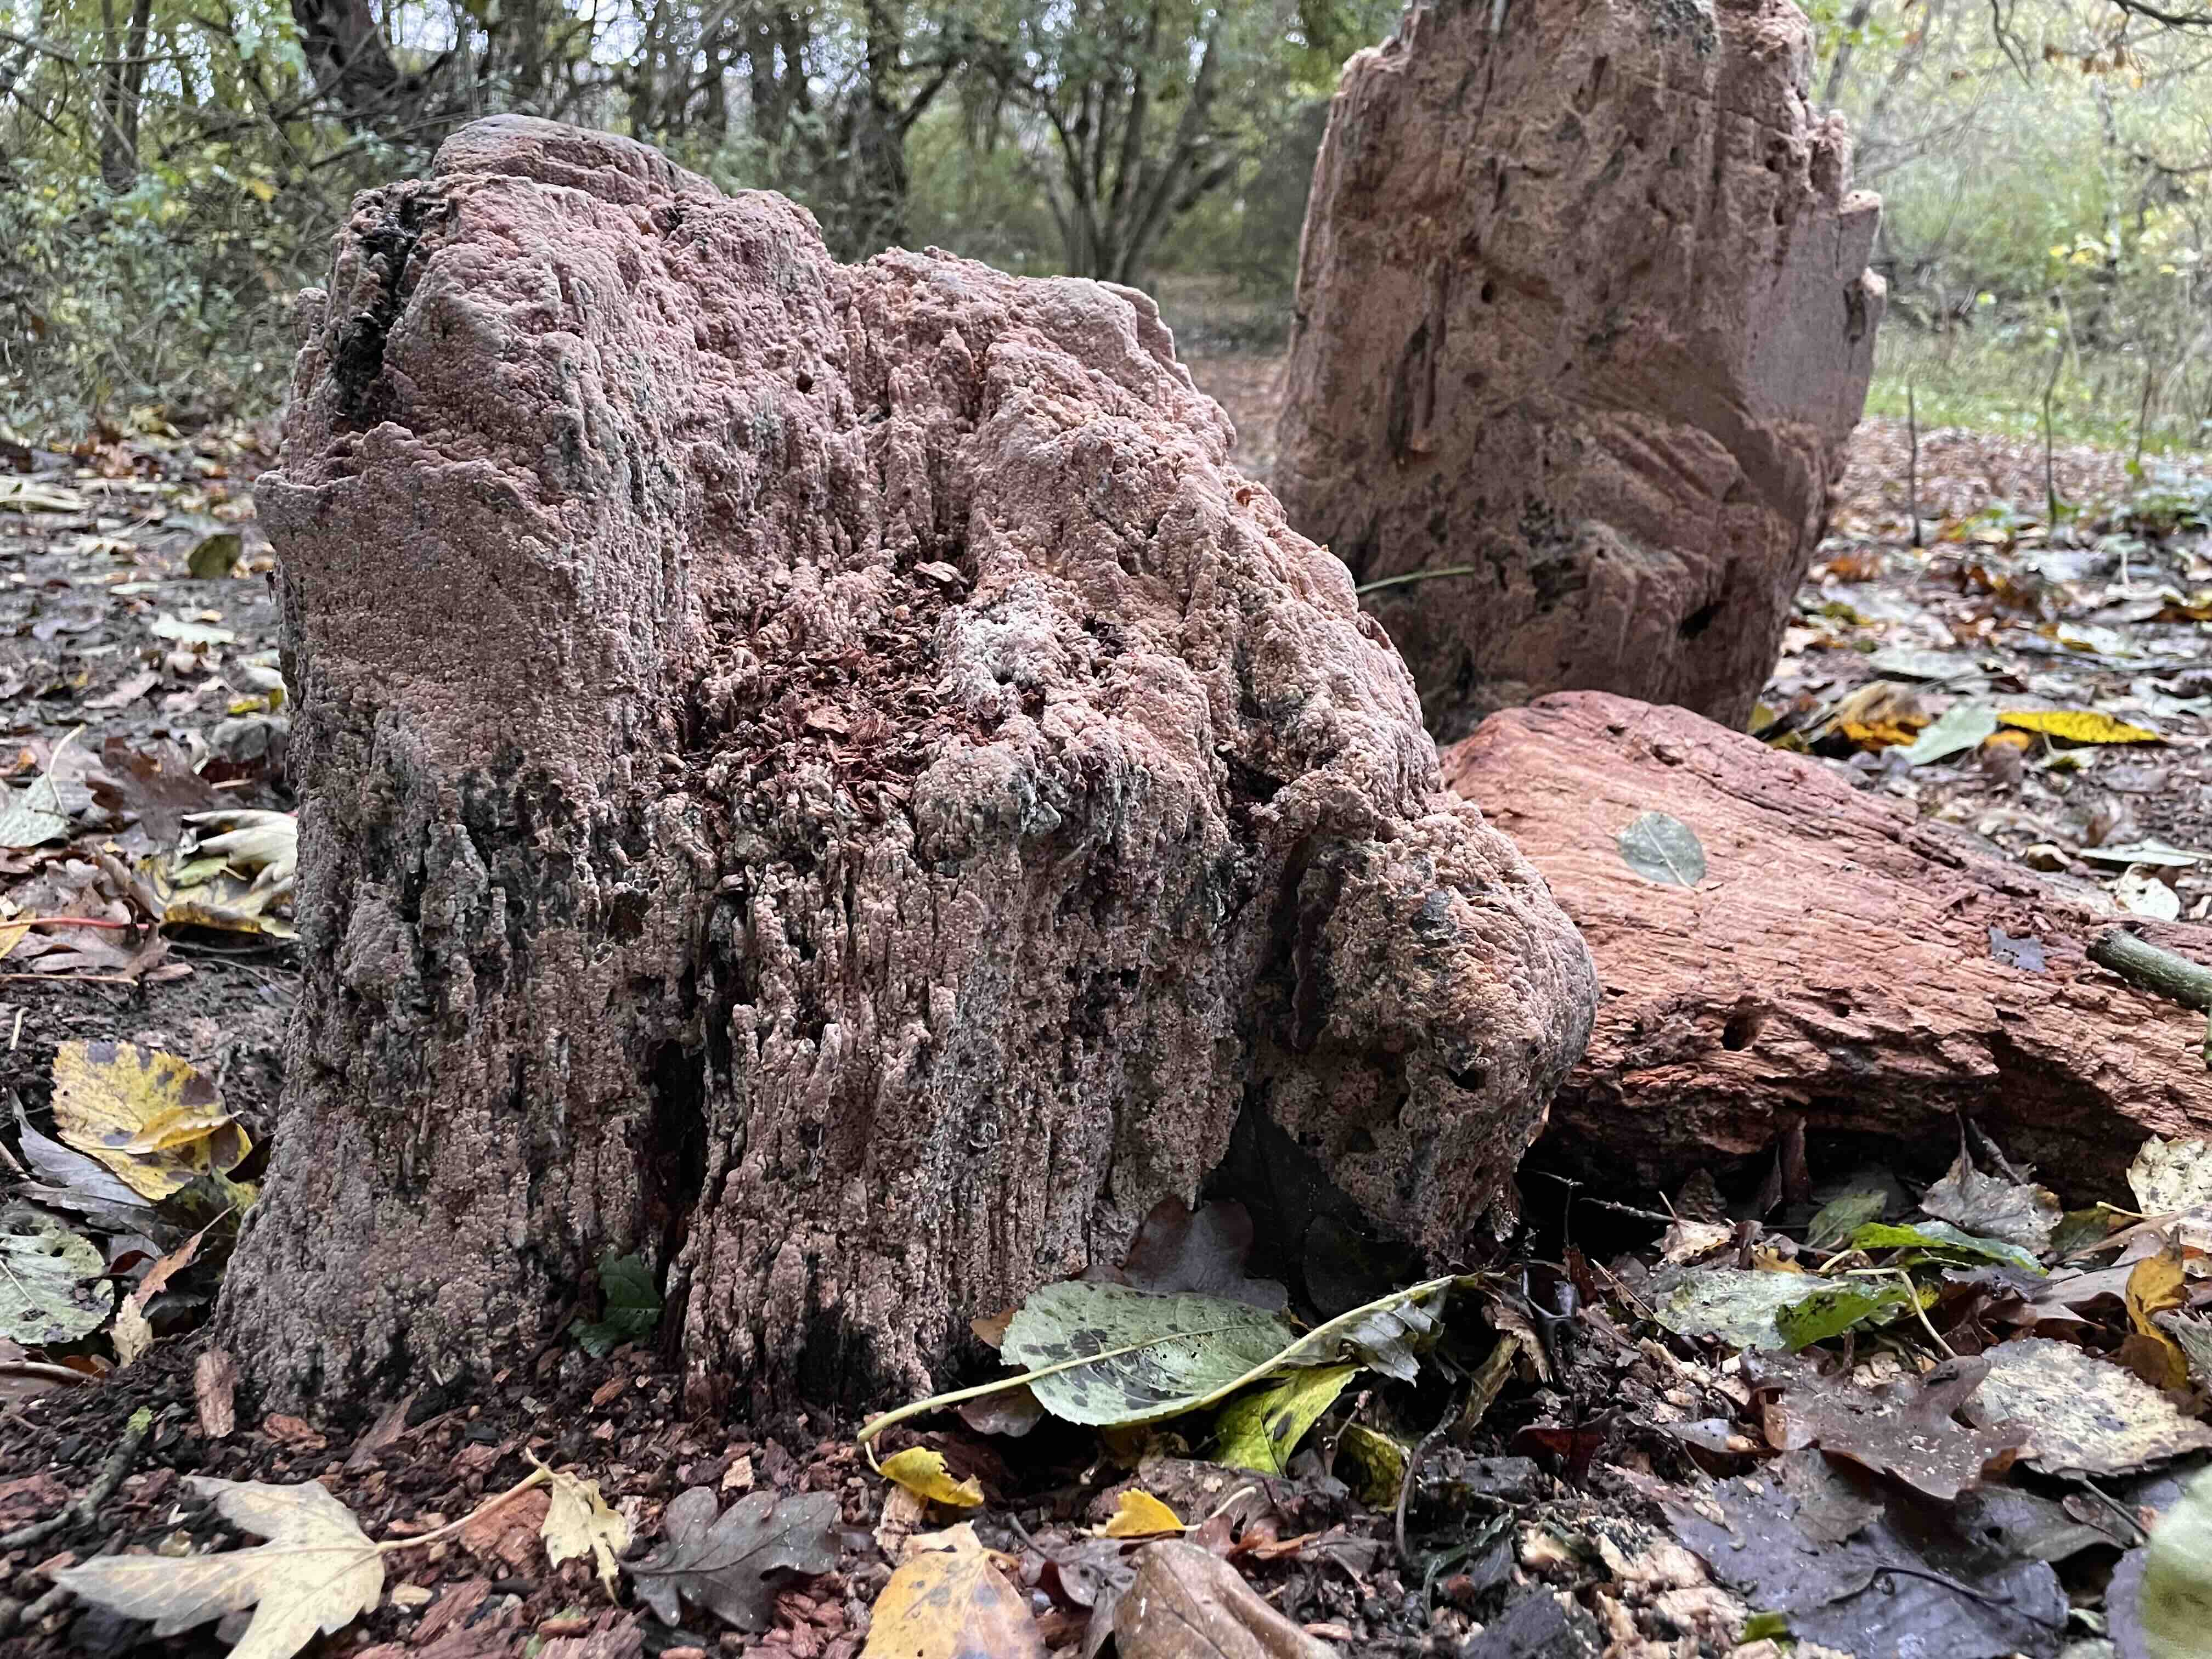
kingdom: Fungi
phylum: Basidiomycota
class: Agaricomycetes
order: Russulales
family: Peniophoraceae
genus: Gloiothele
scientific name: Gloiothele lactescens
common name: bitter olieskind
